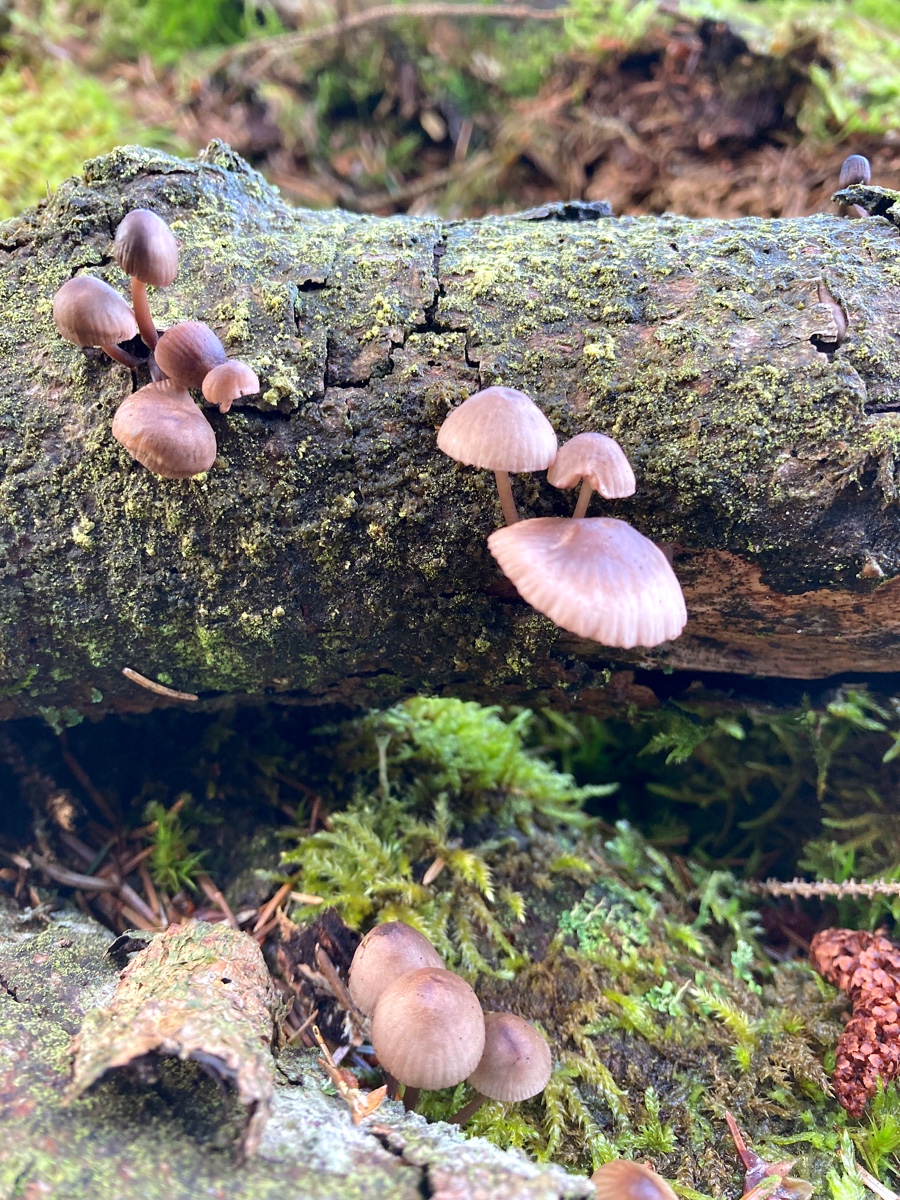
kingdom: Fungi
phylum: Basidiomycota
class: Agaricomycetes
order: Agaricales
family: Mycenaceae
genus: Mycena
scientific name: Mycena
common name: huesvamp
